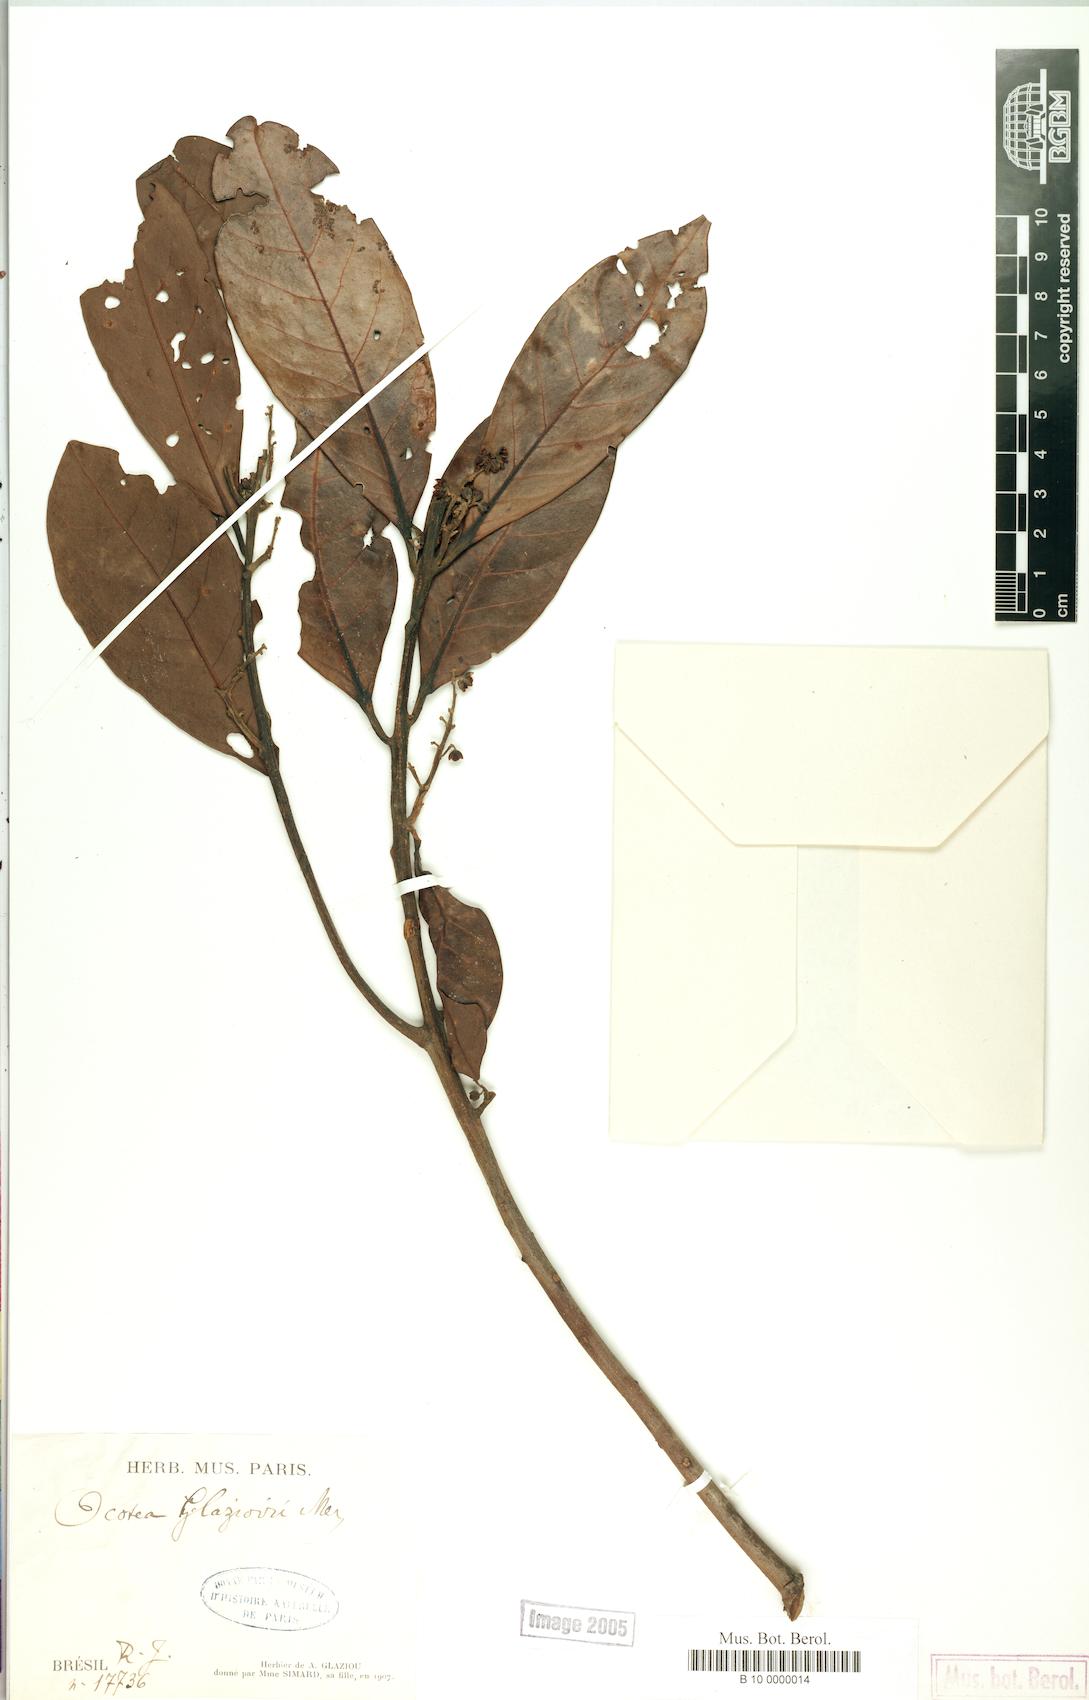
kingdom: Plantae
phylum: Tracheophyta
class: Magnoliopsida
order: Laurales
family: Lauraceae
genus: Ocotea
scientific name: Ocotea glaziovii
